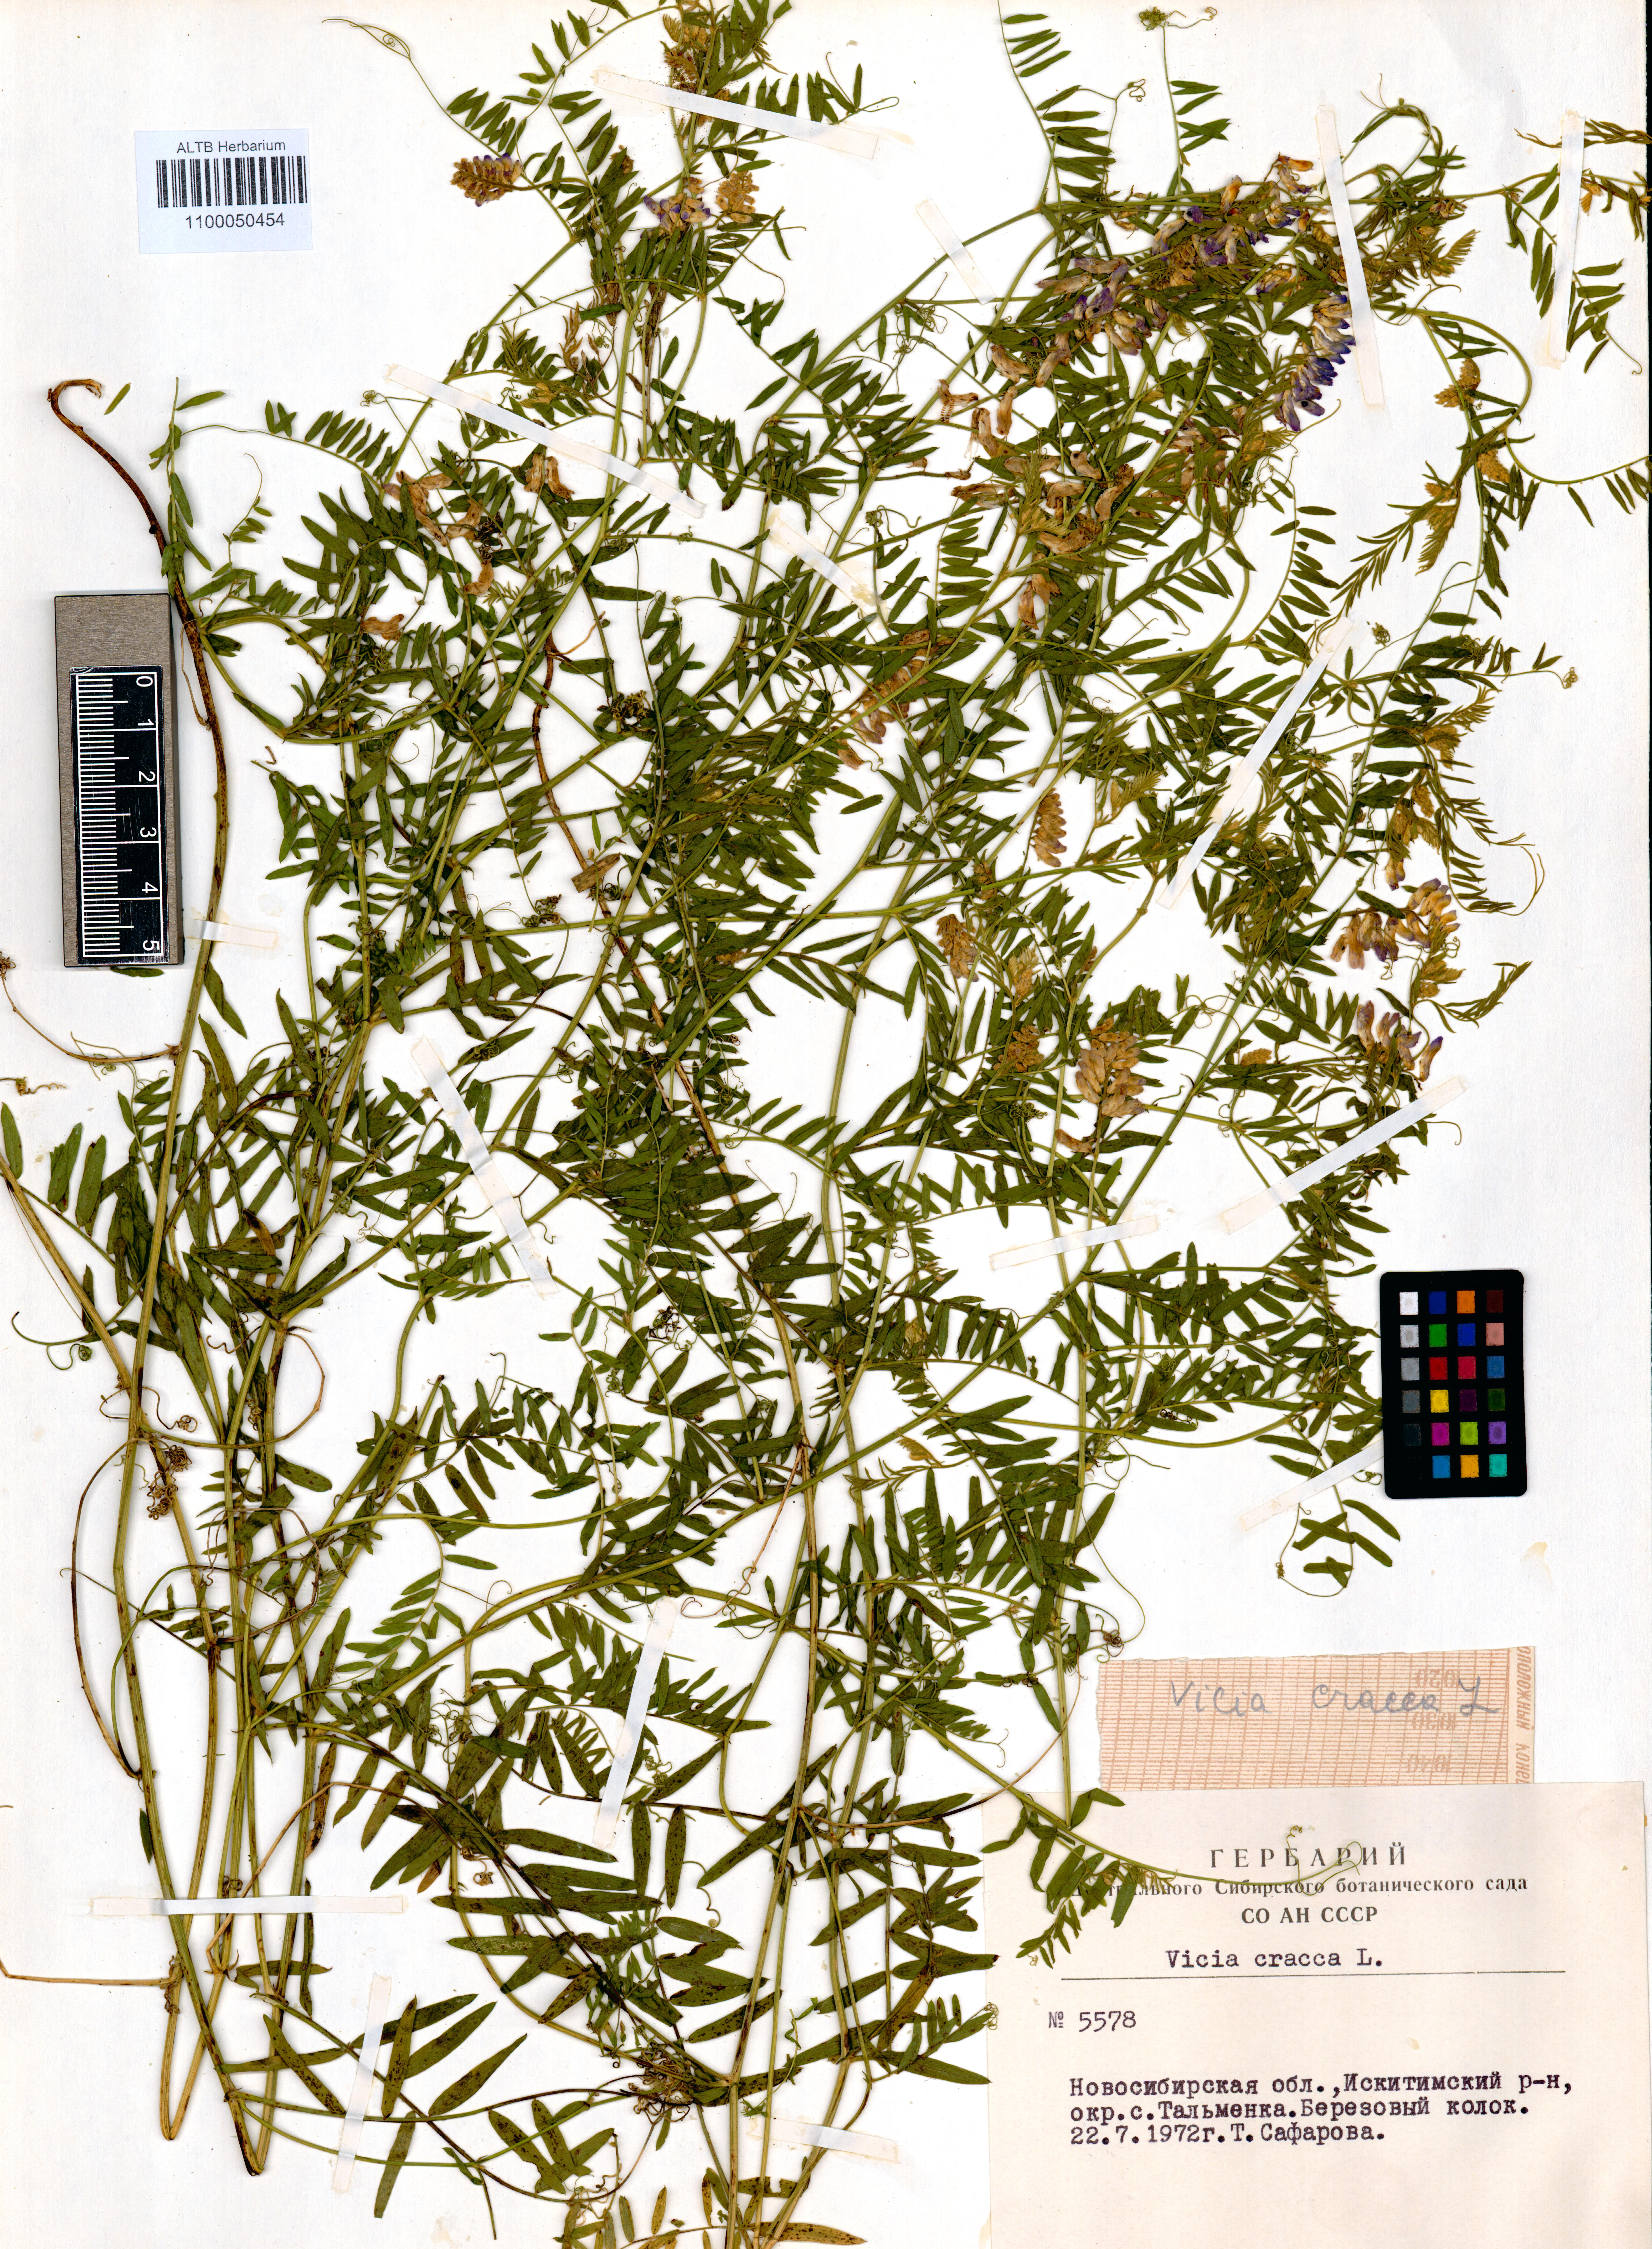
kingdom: Plantae
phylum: Tracheophyta
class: Magnoliopsida
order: Fabales
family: Fabaceae
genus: Vicia
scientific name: Vicia cracca
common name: Bird vetch
